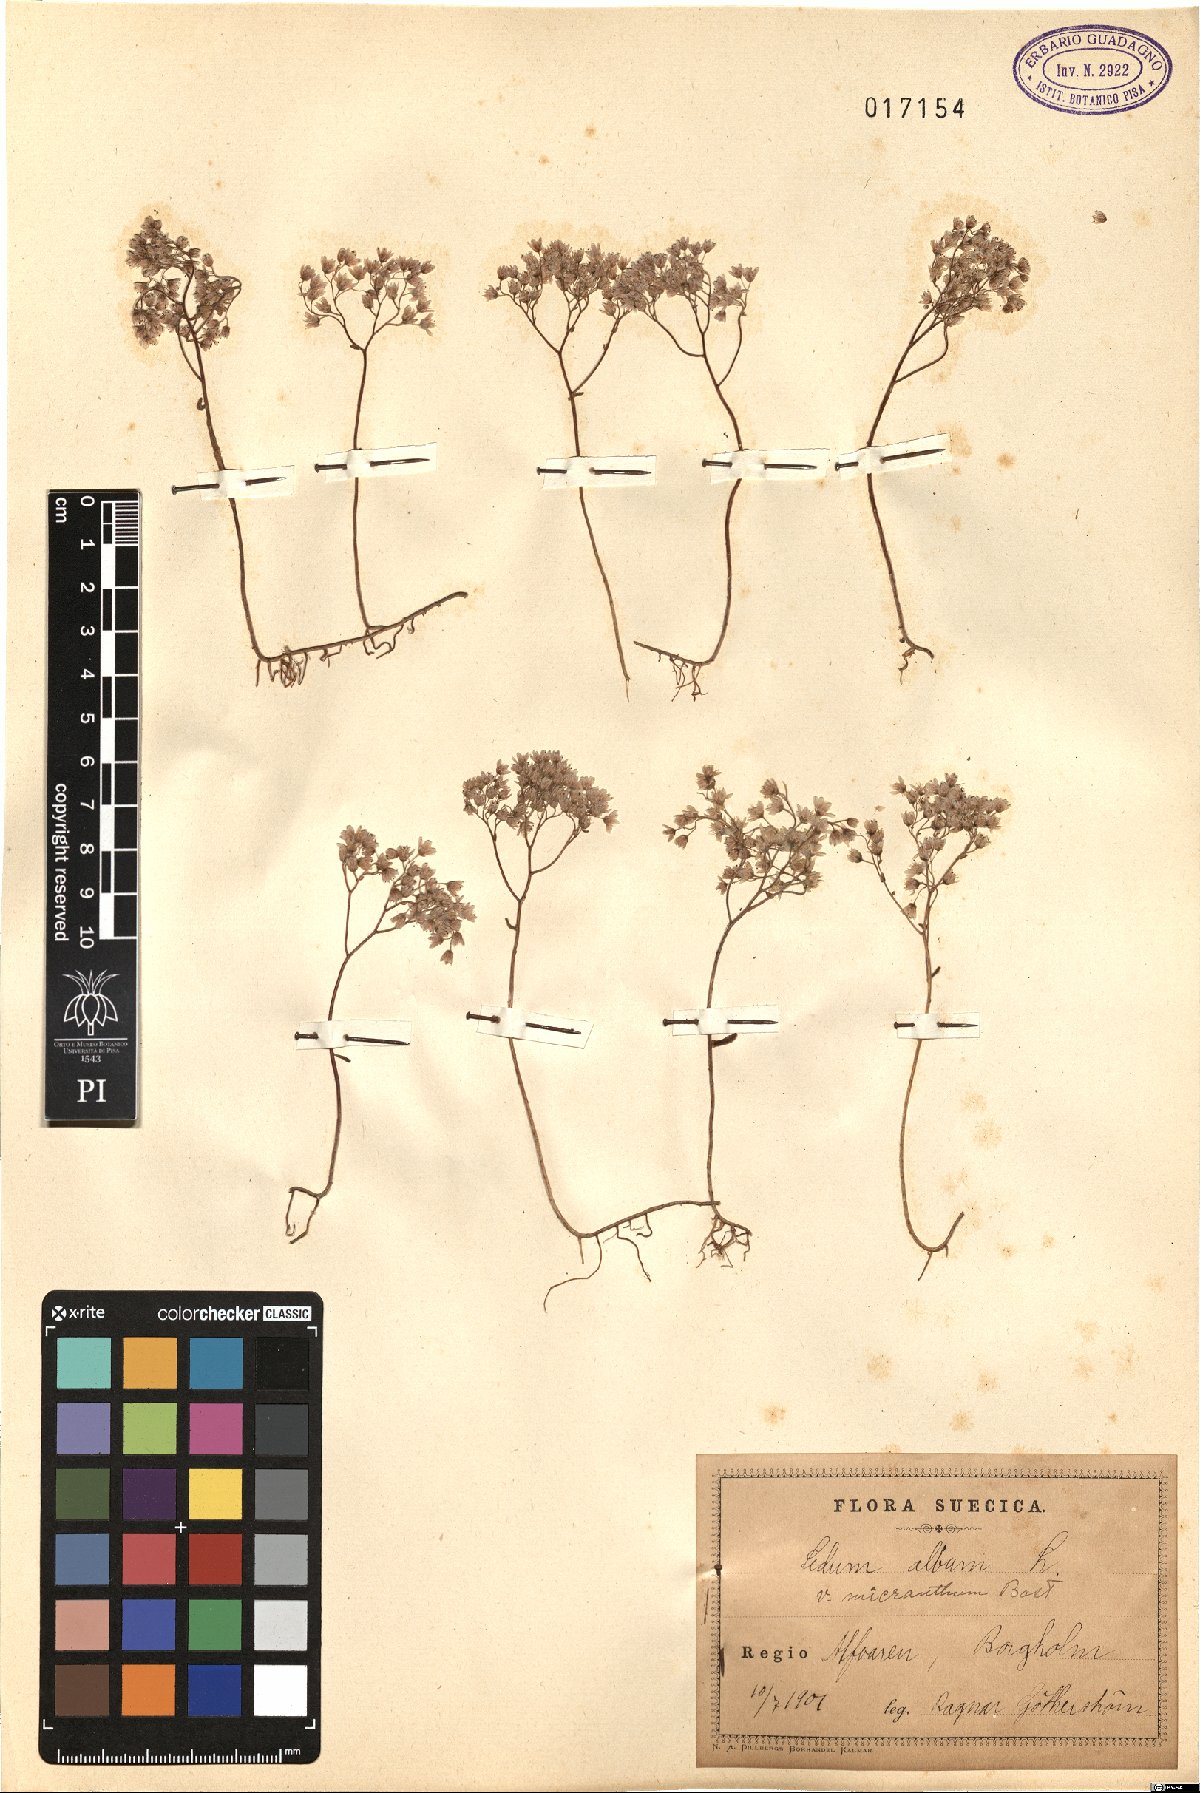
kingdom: Plantae
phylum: Tracheophyta
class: Magnoliopsida
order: Saxifragales
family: Crassulaceae
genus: Sedum
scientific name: Sedum album
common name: White stonecrop
